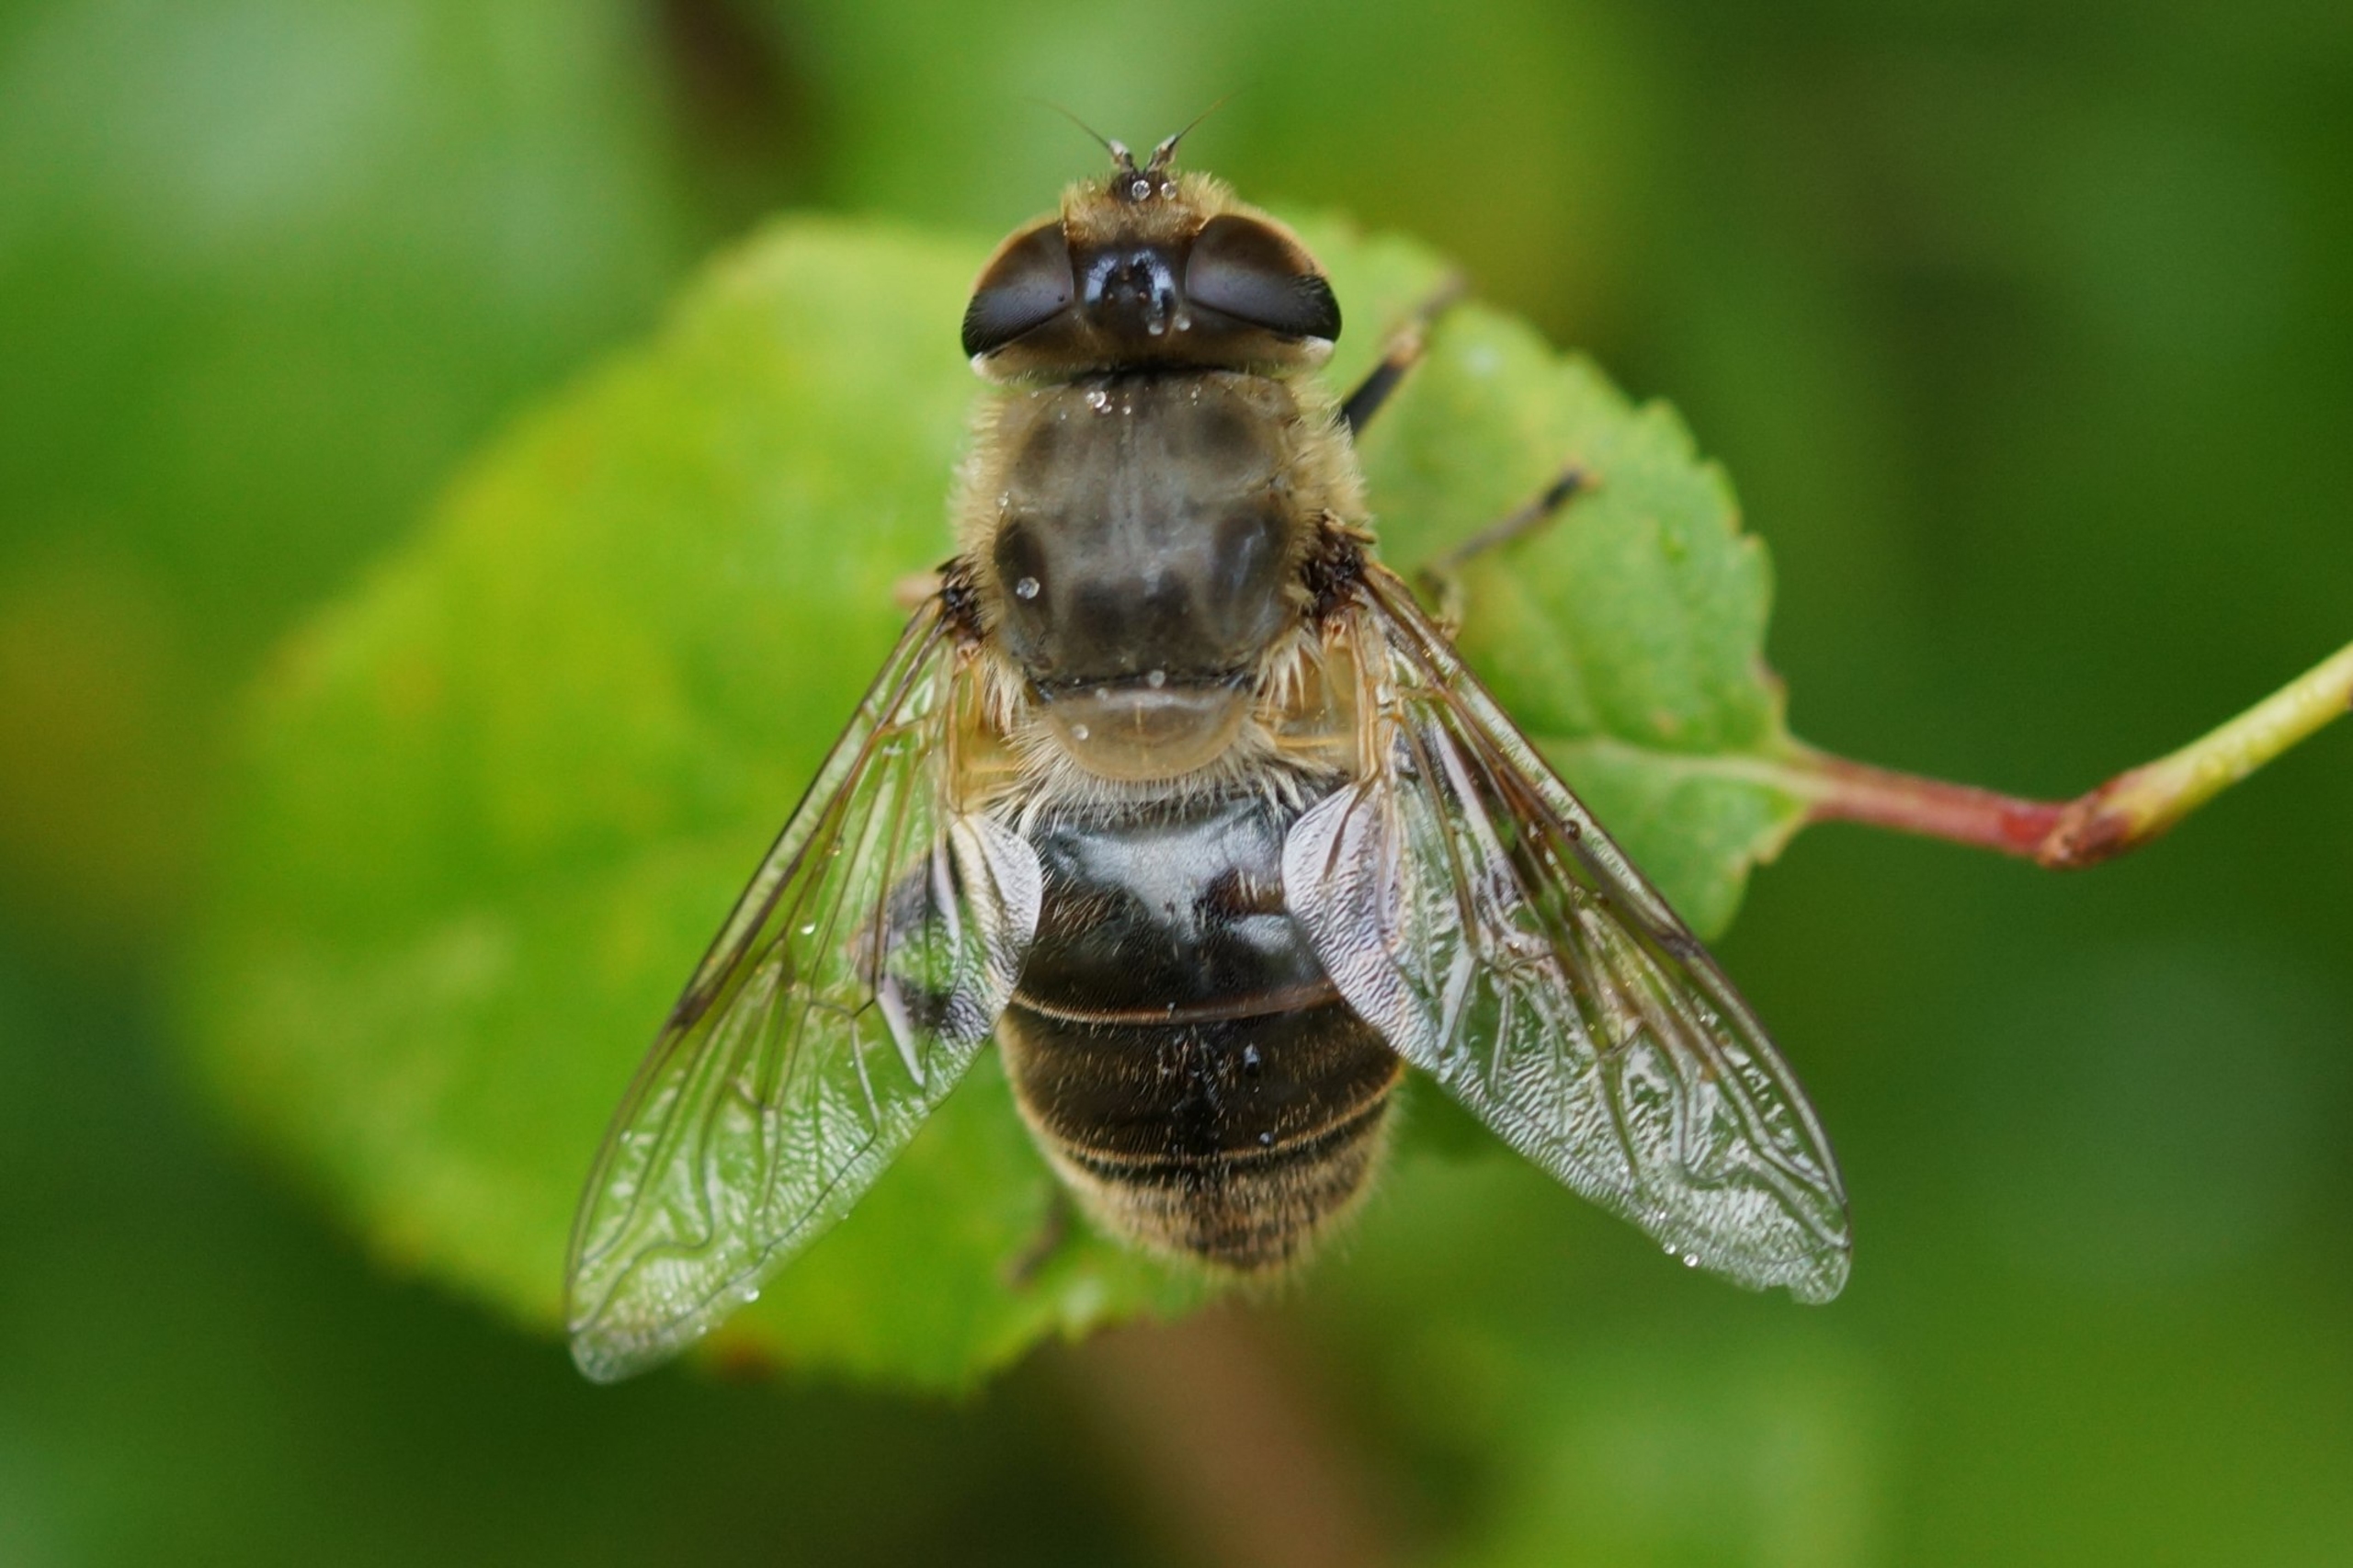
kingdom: Animalia
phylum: Arthropoda
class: Insecta
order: Diptera
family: Syrphidae
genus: Eristalis
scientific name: Eristalis tenax
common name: Droneflue
